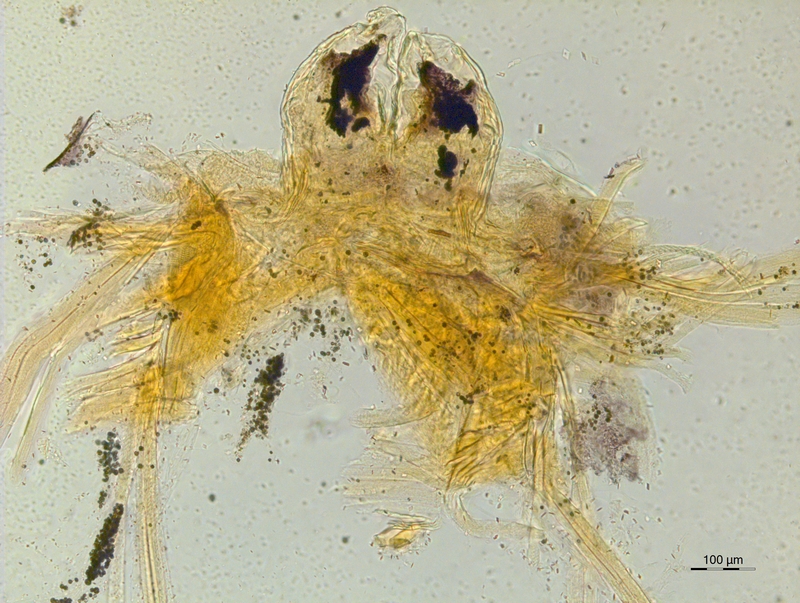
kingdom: Animalia
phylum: Arthropoda
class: Diplopoda
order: Chordeumatida
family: Craspedosomatidae
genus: Atractosoma
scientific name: Atractosoma cecconii
